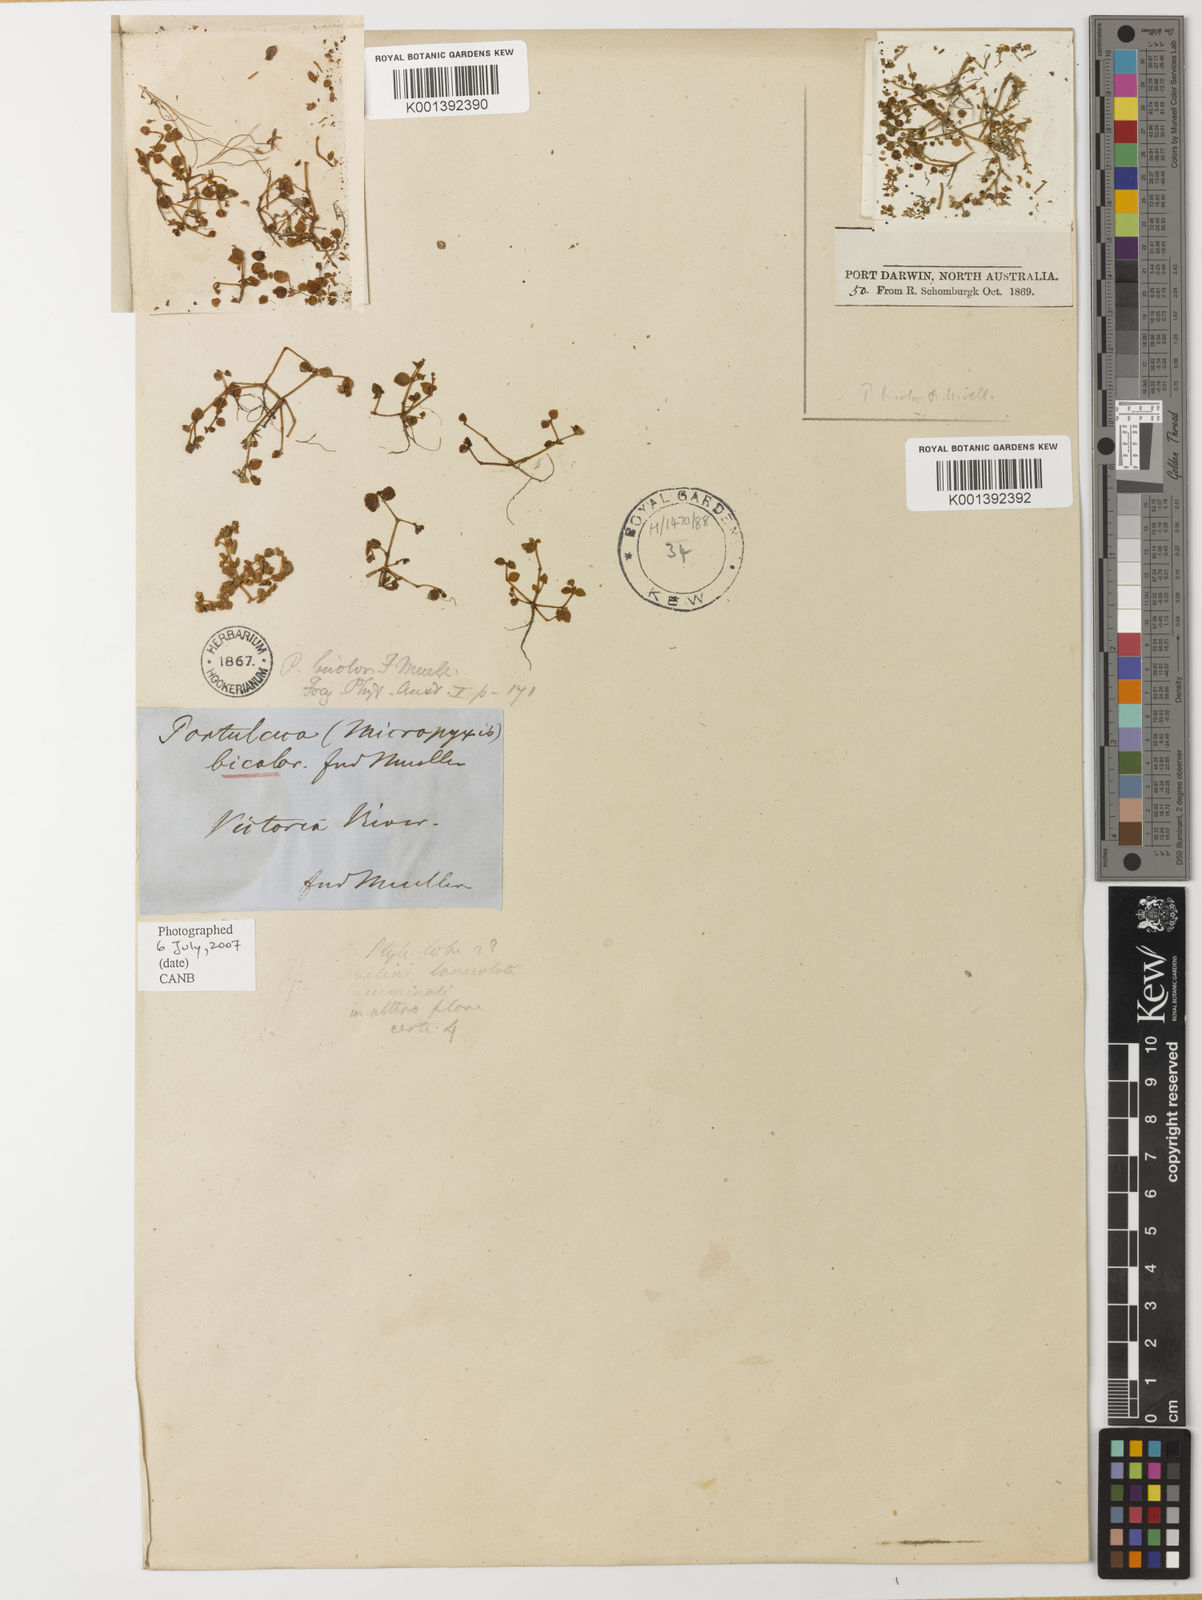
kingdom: Plantae
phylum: Tracheophyta
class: Magnoliopsida
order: Caryophyllales
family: Portulacaceae
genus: Portulaca
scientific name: Portulaca
